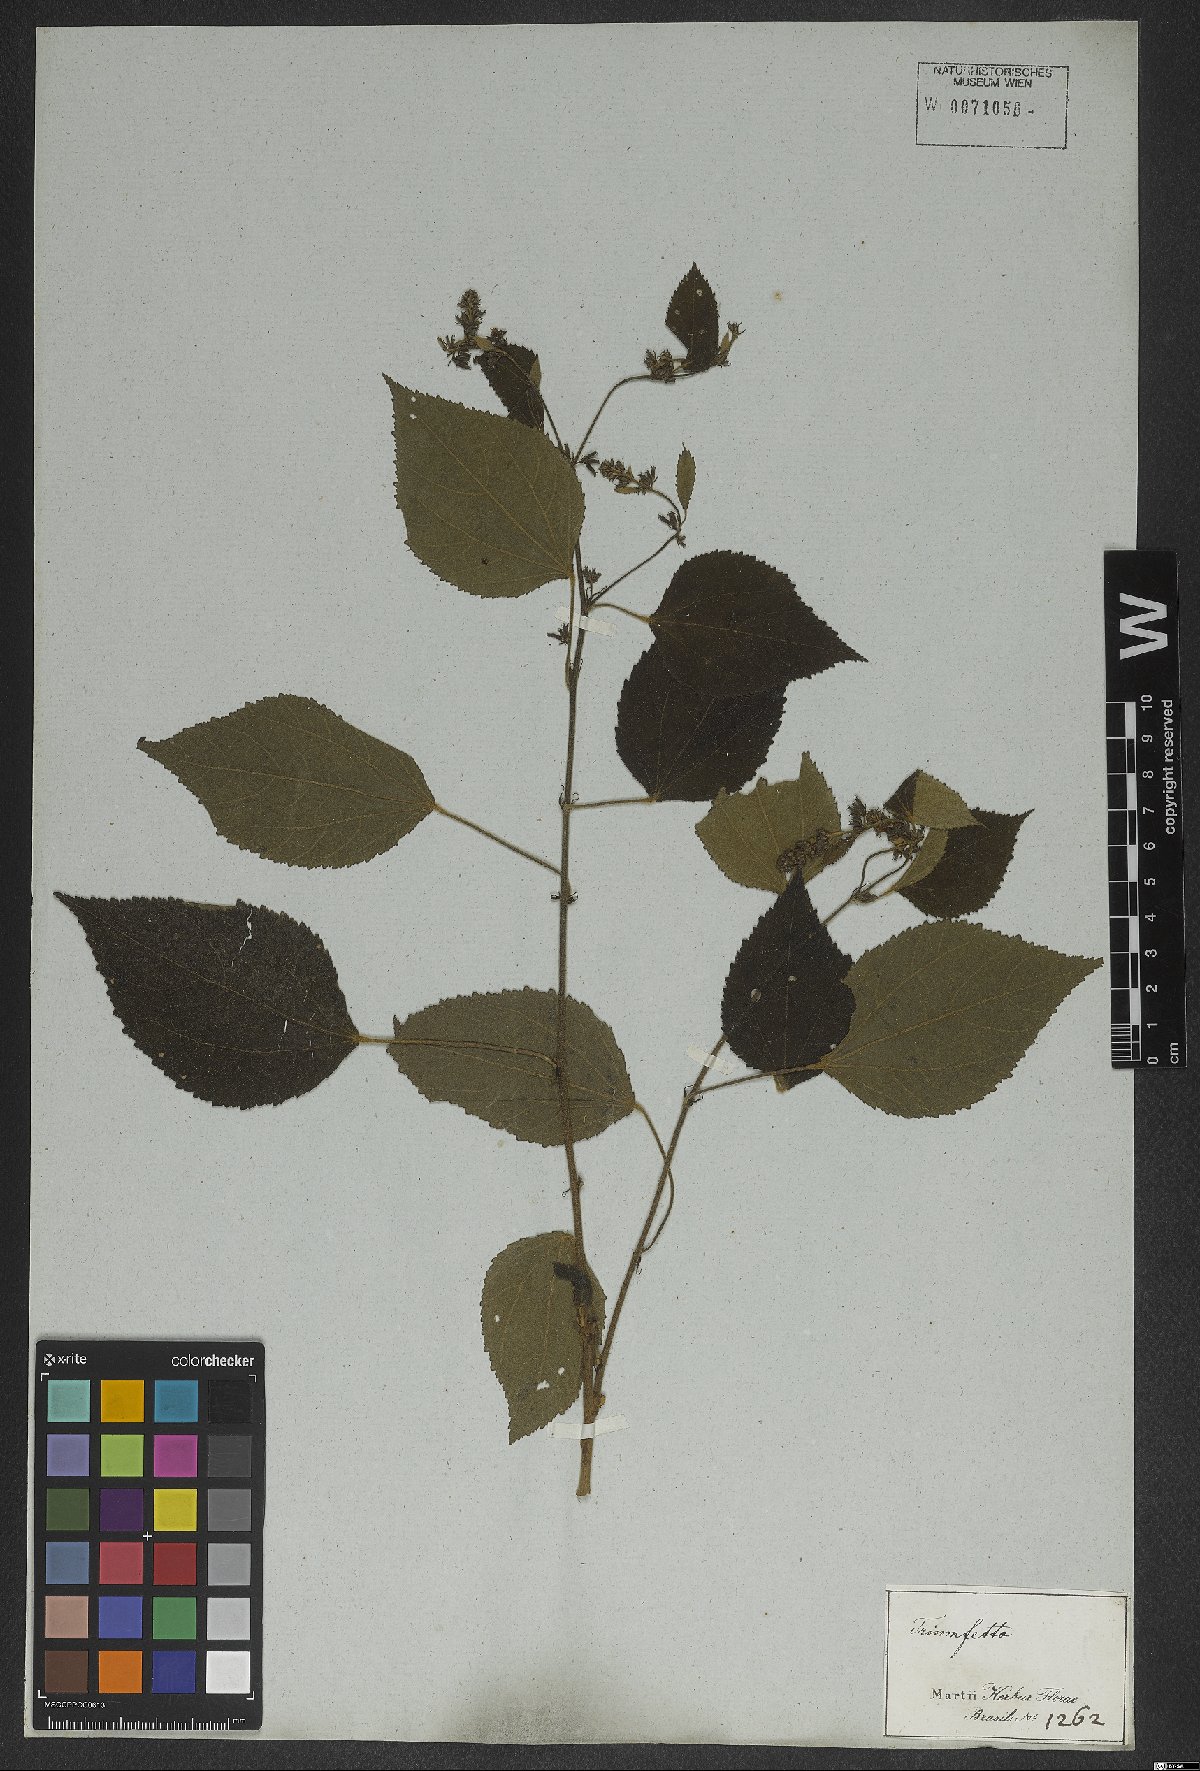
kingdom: Plantae
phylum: Tracheophyta
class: Magnoliopsida
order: Malvales
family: Malvaceae
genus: Triumfetta
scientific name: Triumfetta semitriloba
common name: Sacramento burbark
